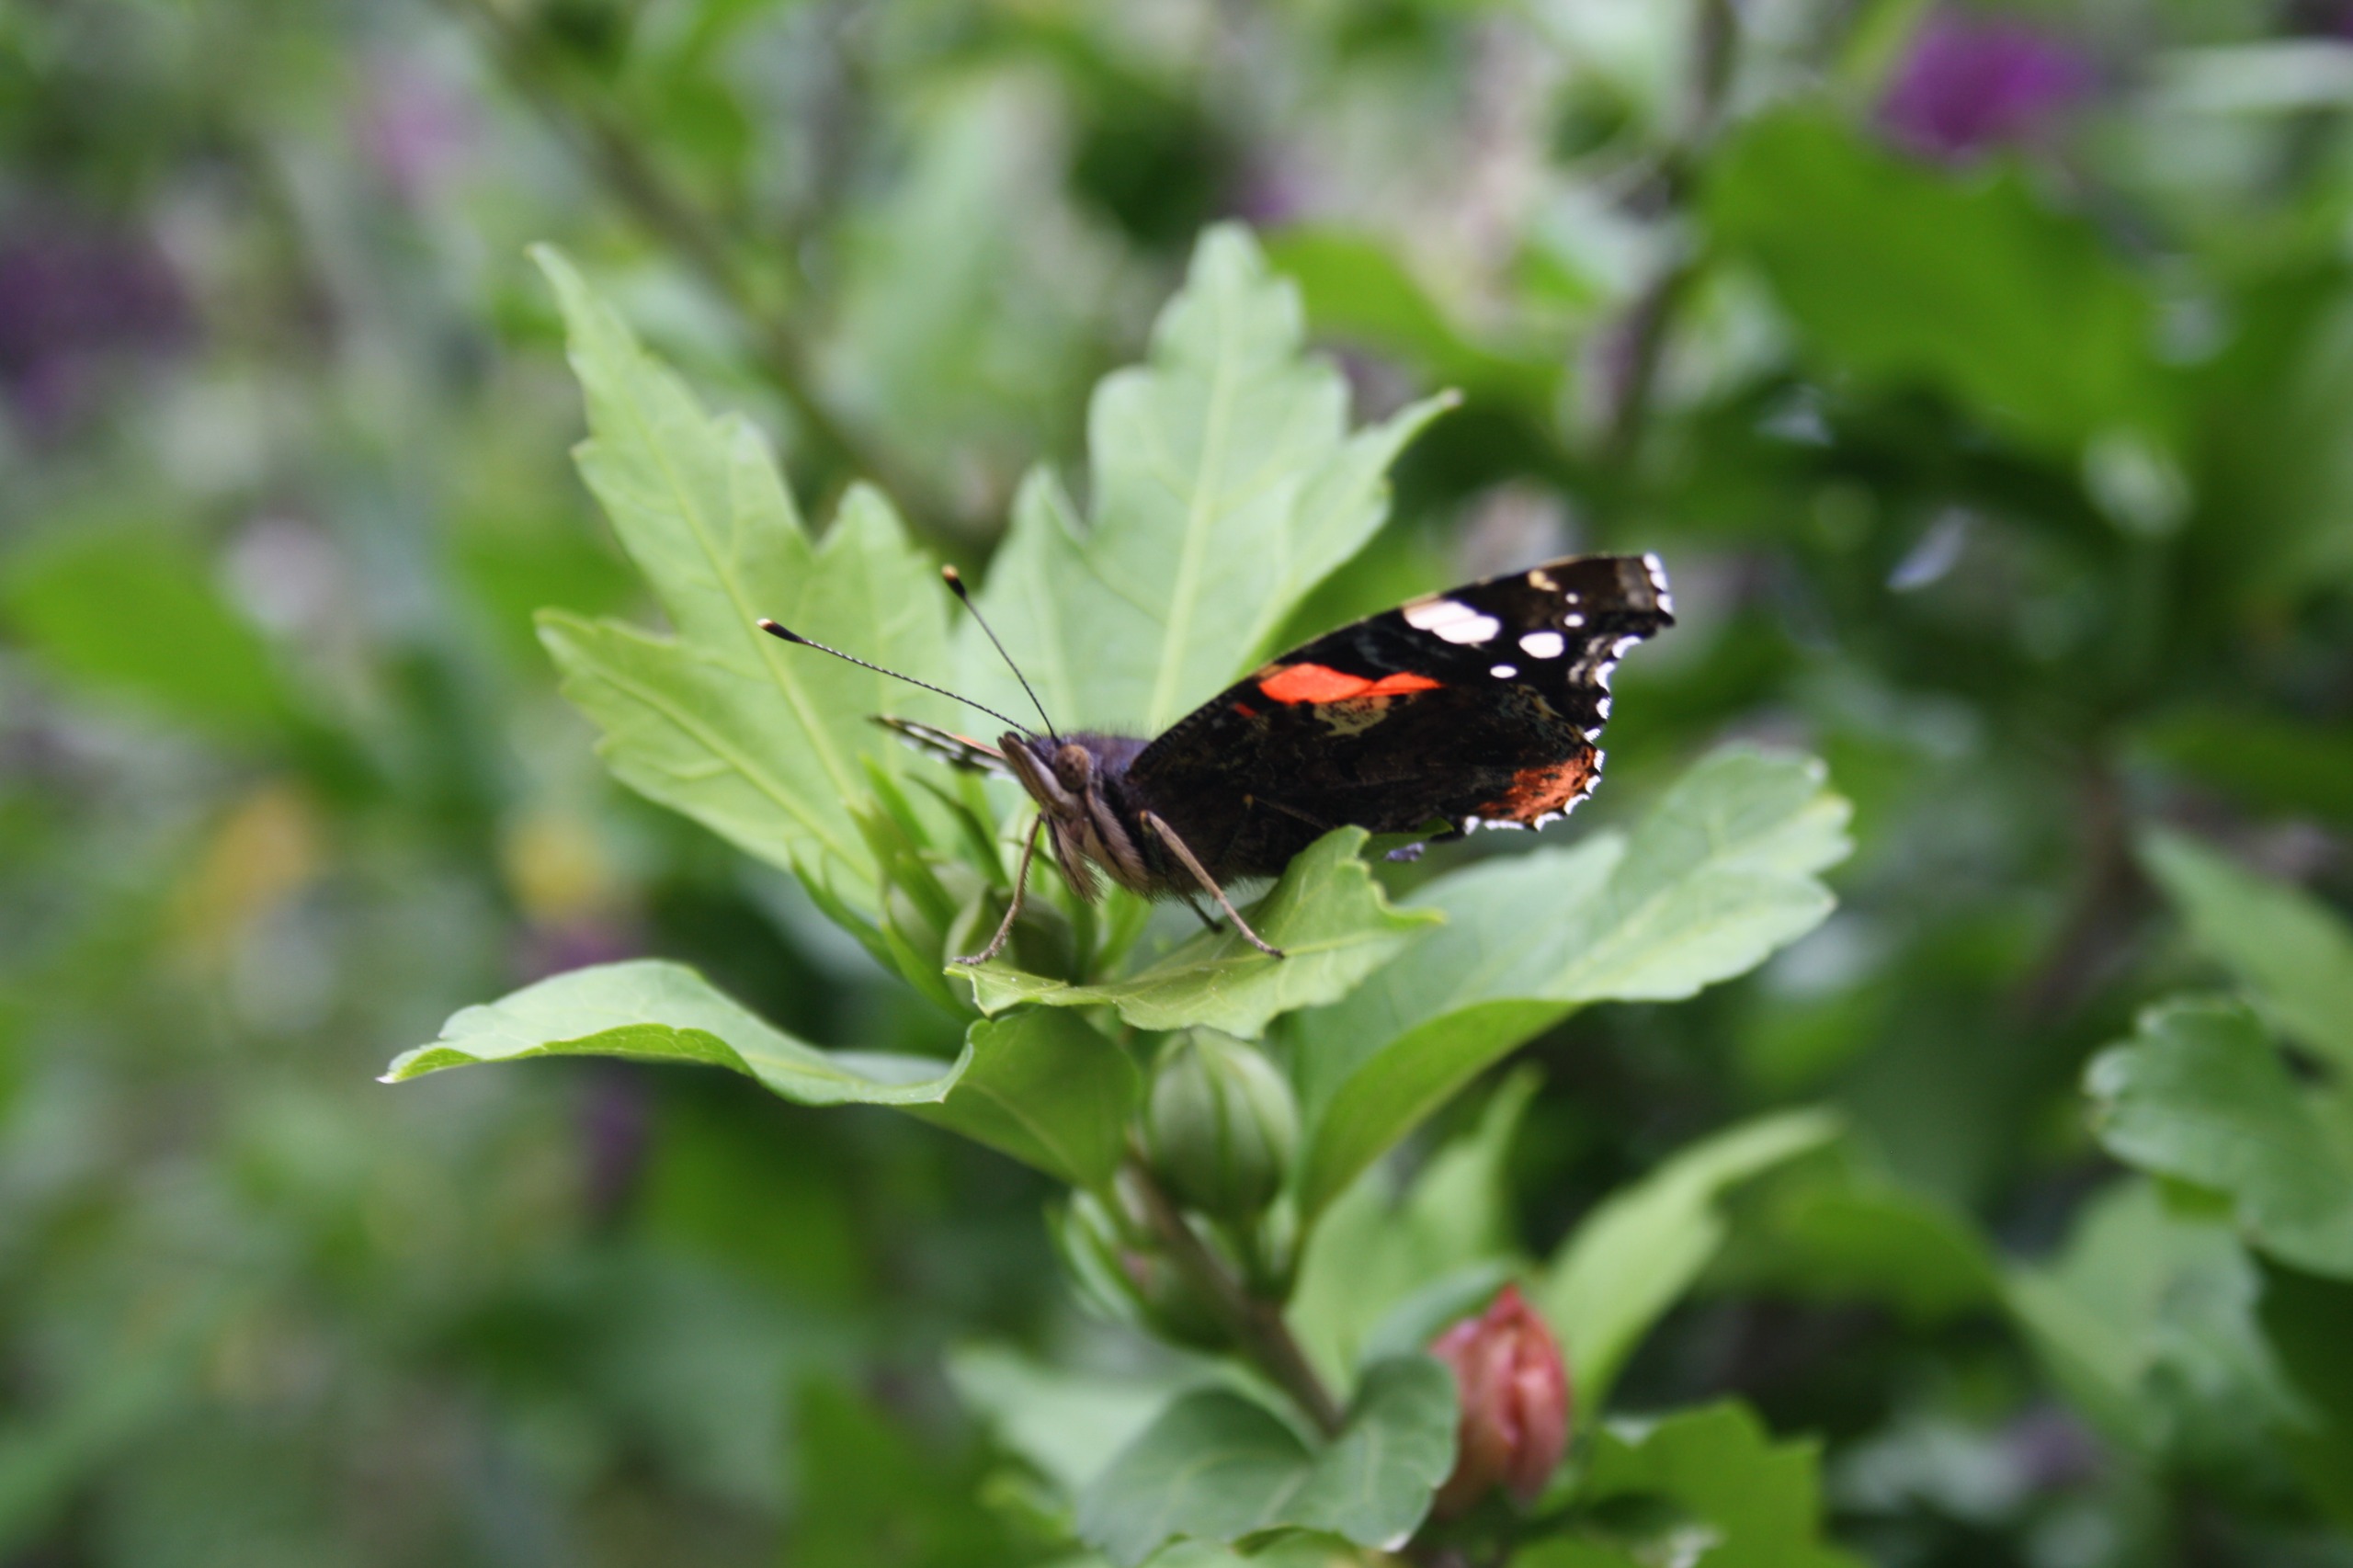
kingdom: Animalia
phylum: Arthropoda
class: Insecta
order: Lepidoptera
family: Nymphalidae
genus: Vanessa
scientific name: Vanessa atalanta
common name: Admiral
